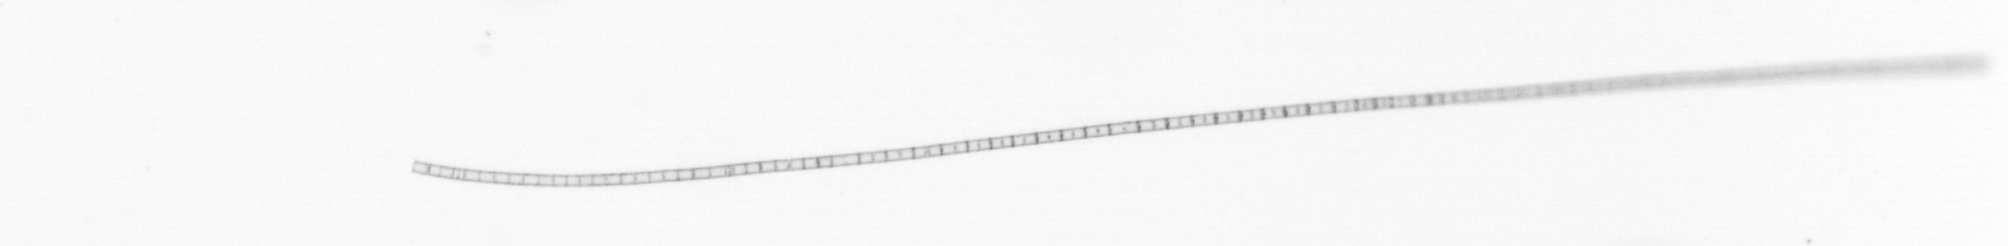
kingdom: Chromista
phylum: Ochrophyta
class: Bacillariophyceae
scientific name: Bacillariophyceae
